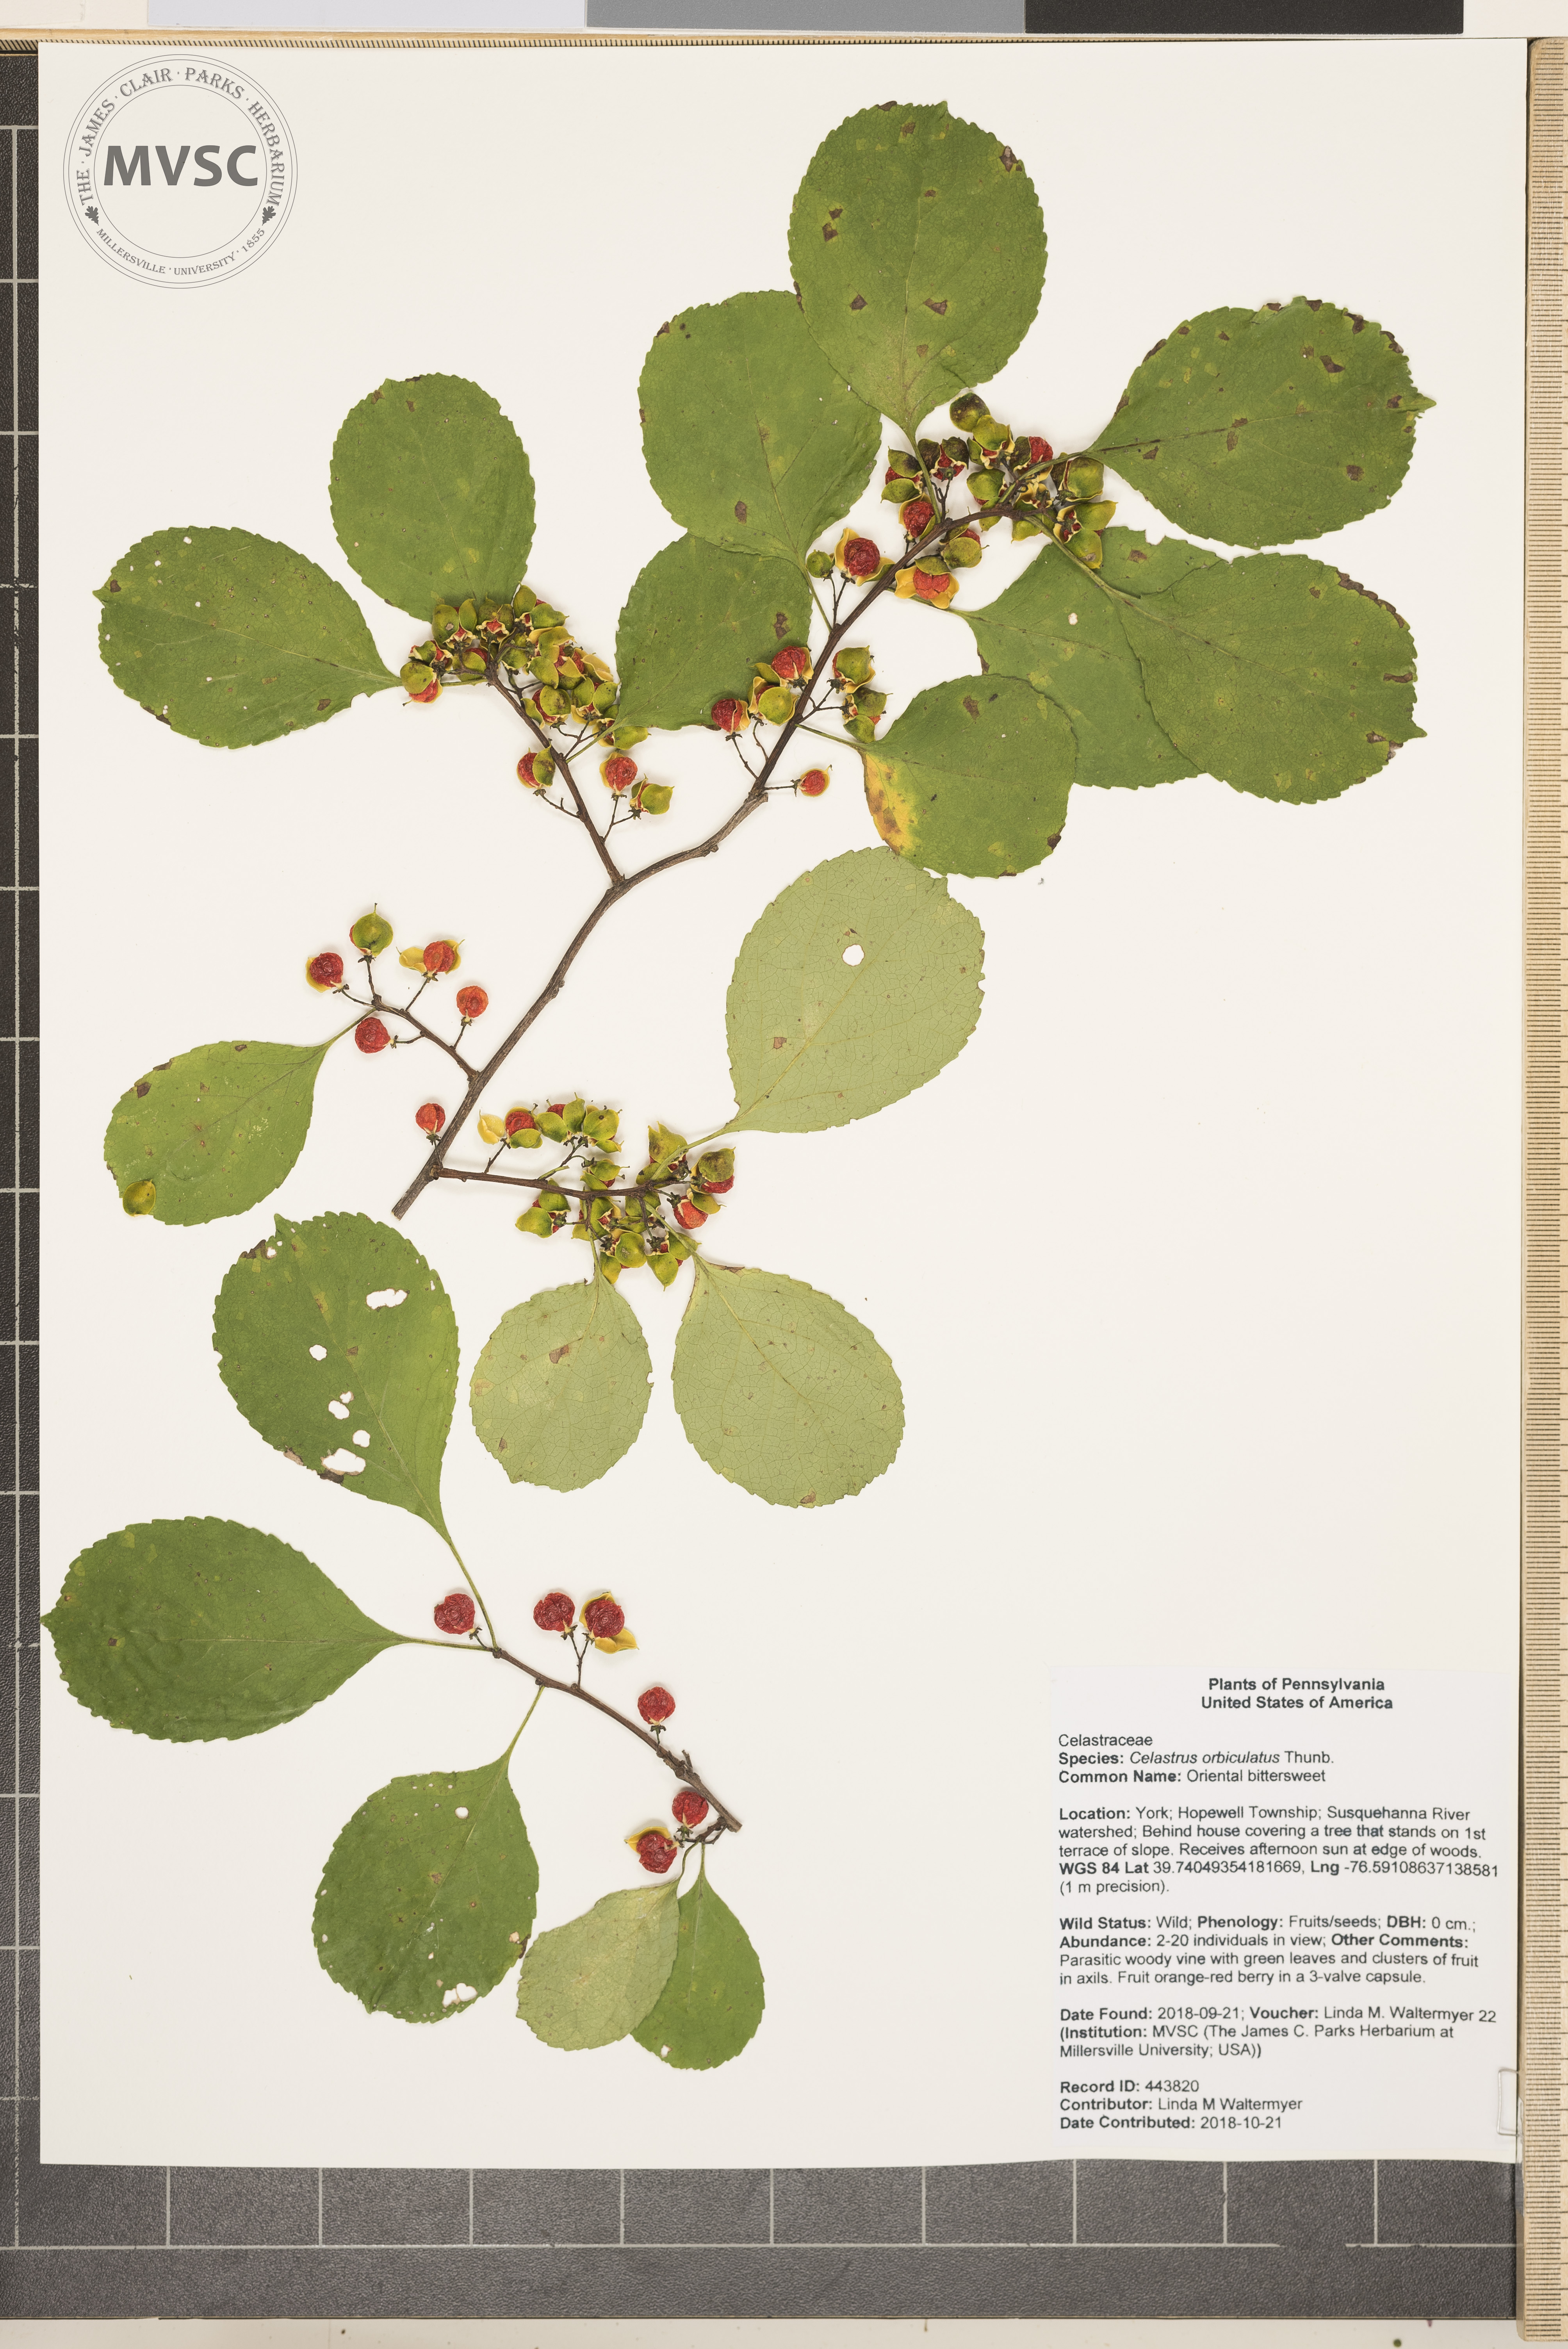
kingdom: Plantae
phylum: Tracheophyta
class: Magnoliopsida
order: Celastrales
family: Celastraceae
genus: Celastrus
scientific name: Celastrus orbiculatus
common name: Oriental bittersweet
